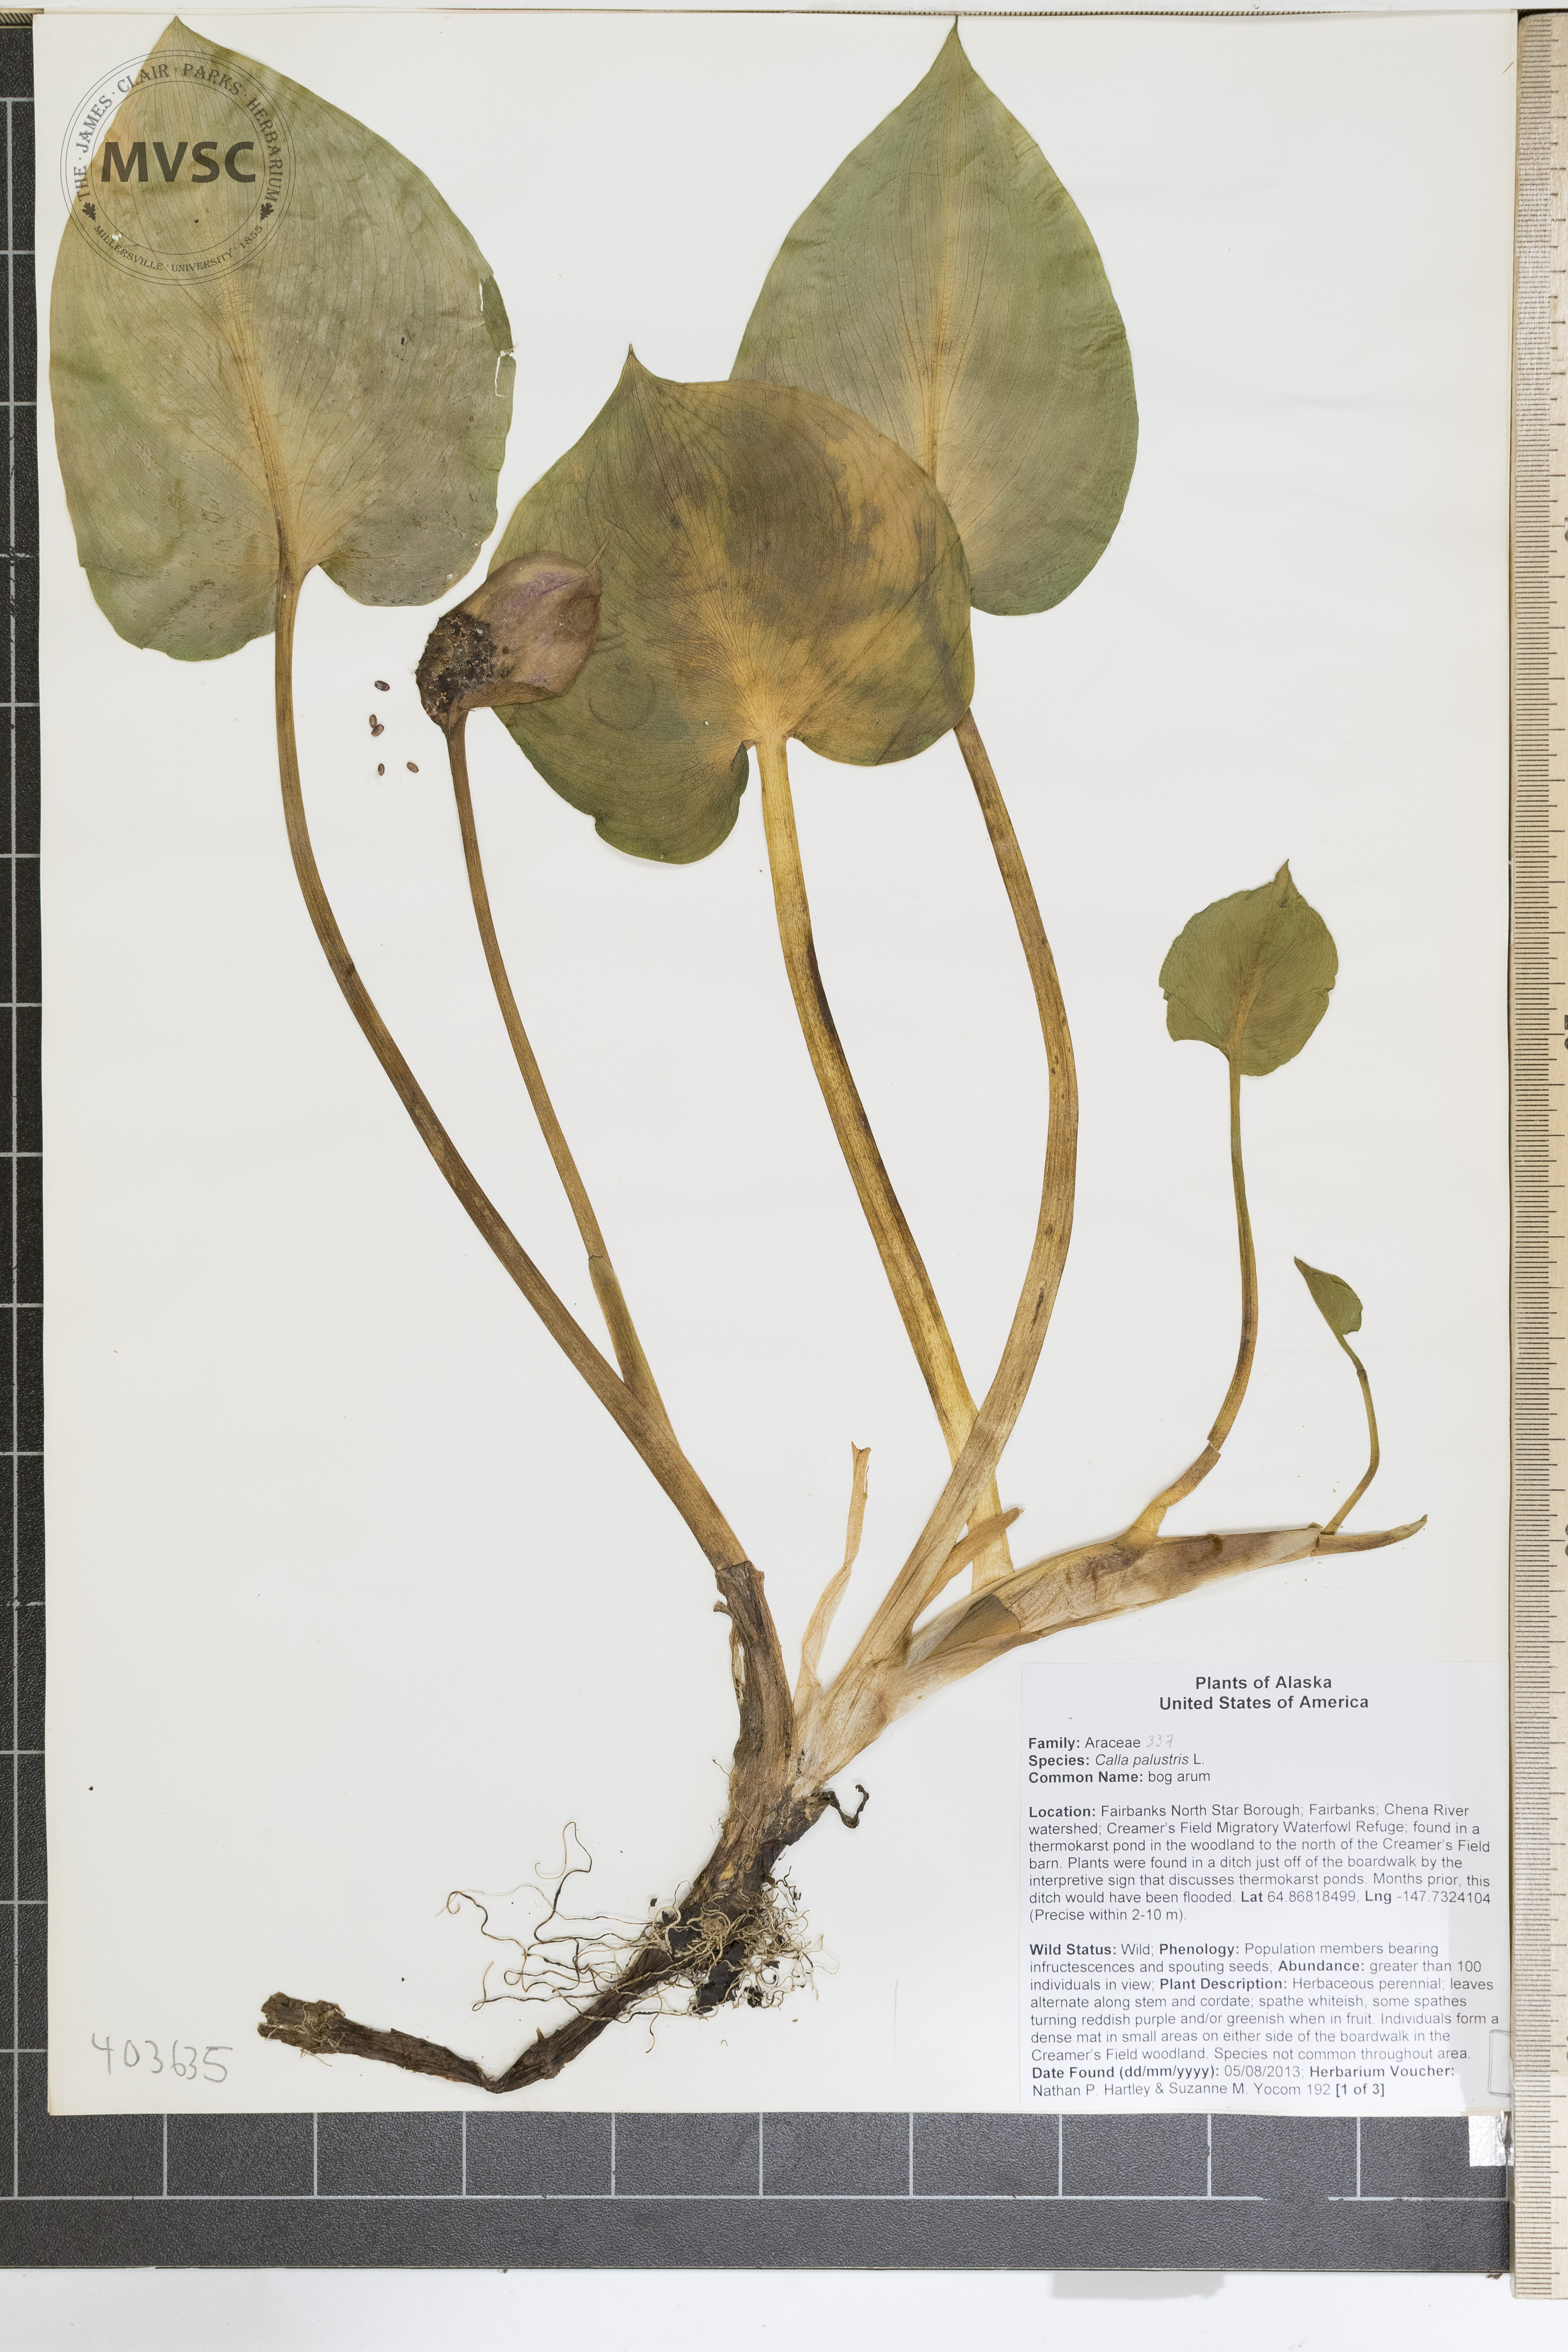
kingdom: Plantae
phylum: Tracheophyta
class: Liliopsida
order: Alismatales
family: Araceae
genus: Calla
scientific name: Calla palustris
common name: bog arum
